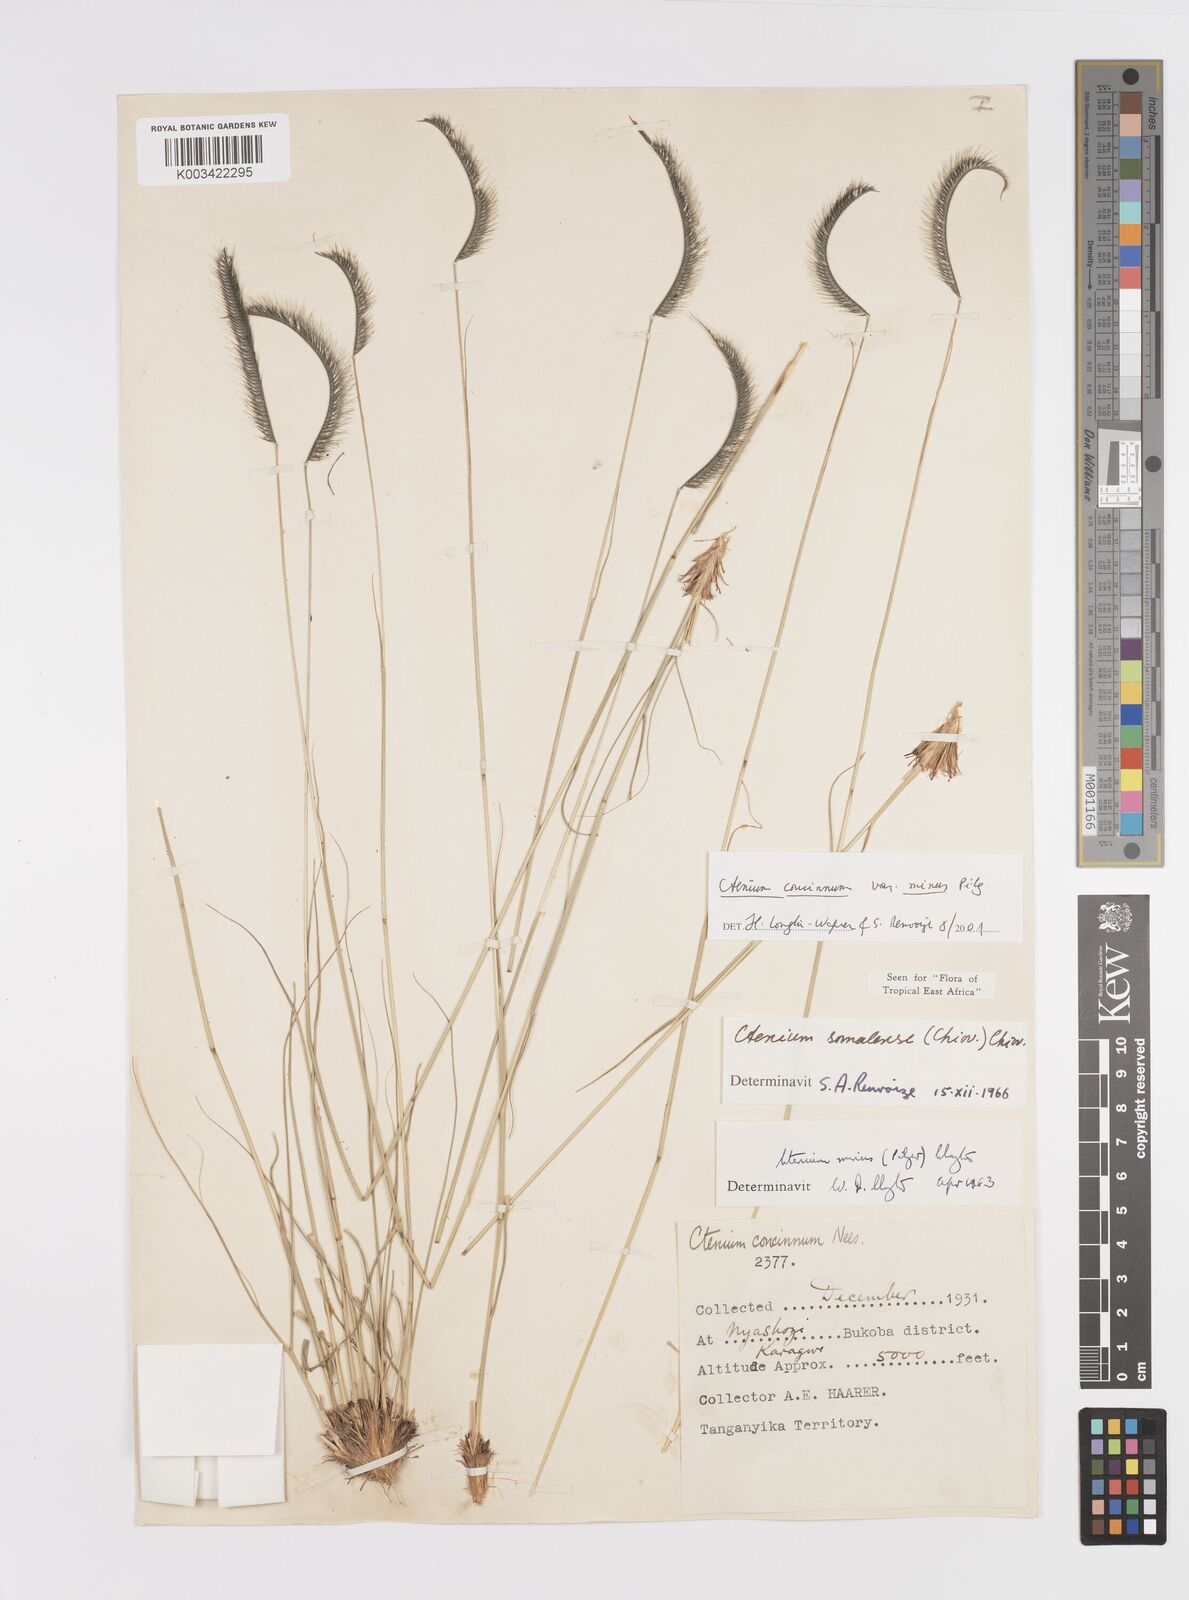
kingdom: Plantae
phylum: Tracheophyta
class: Liliopsida
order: Poales
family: Poaceae
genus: Ctenium
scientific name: Ctenium concinnum
